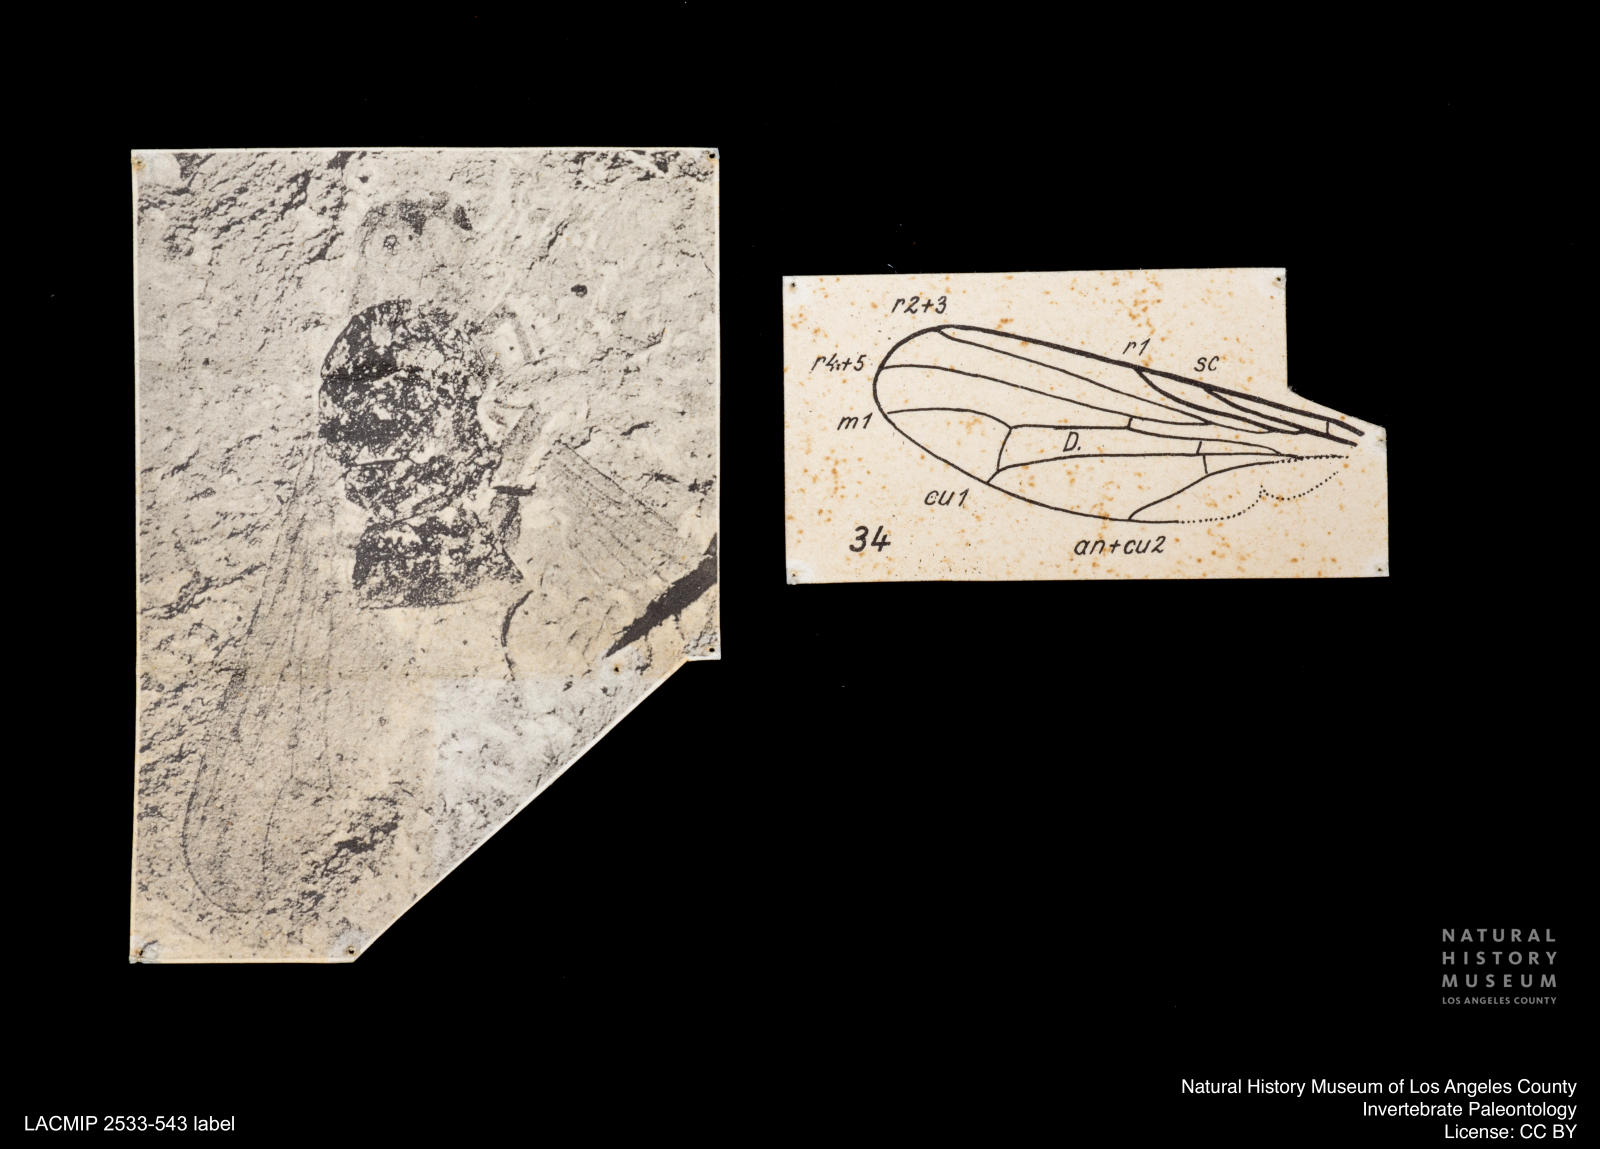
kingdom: Animalia
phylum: Arthropoda
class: Insecta
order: Diptera
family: Scathophagidae
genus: Scathophaga
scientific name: Scathophaga punctata
